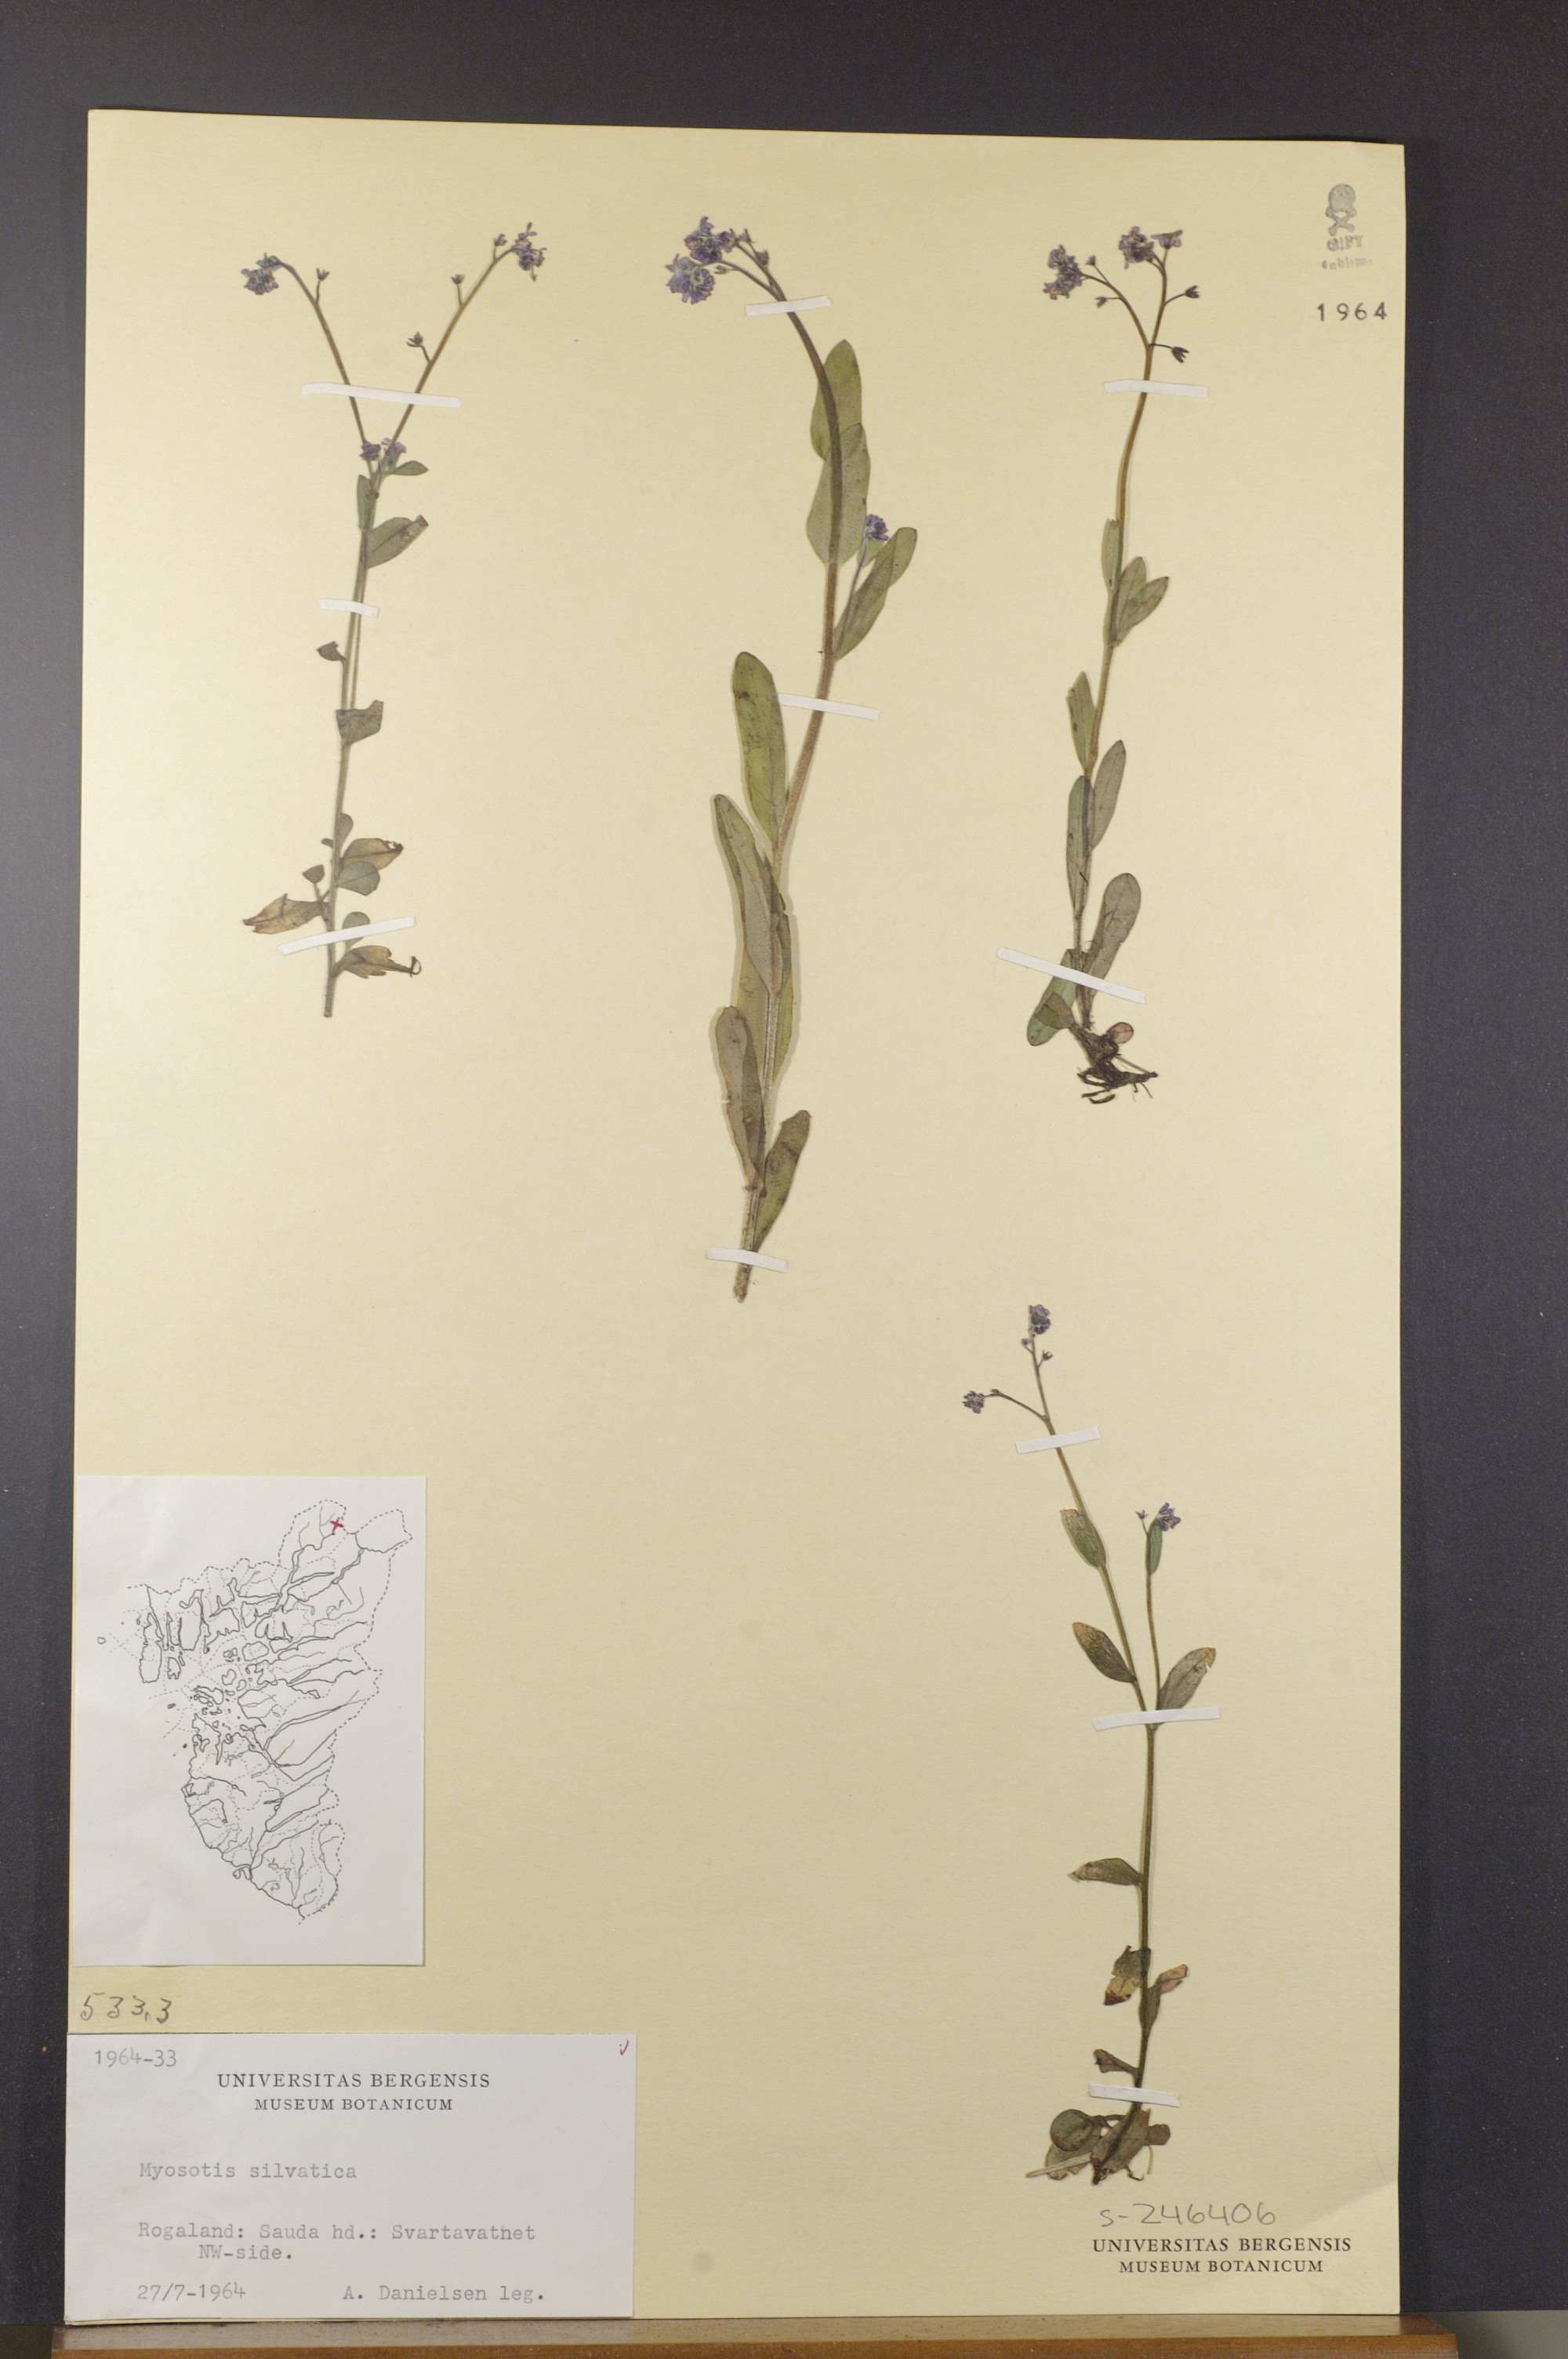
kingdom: Plantae
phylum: Tracheophyta
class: Magnoliopsida
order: Boraginales
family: Boraginaceae
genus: Myosotis
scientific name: Myosotis decumbens
